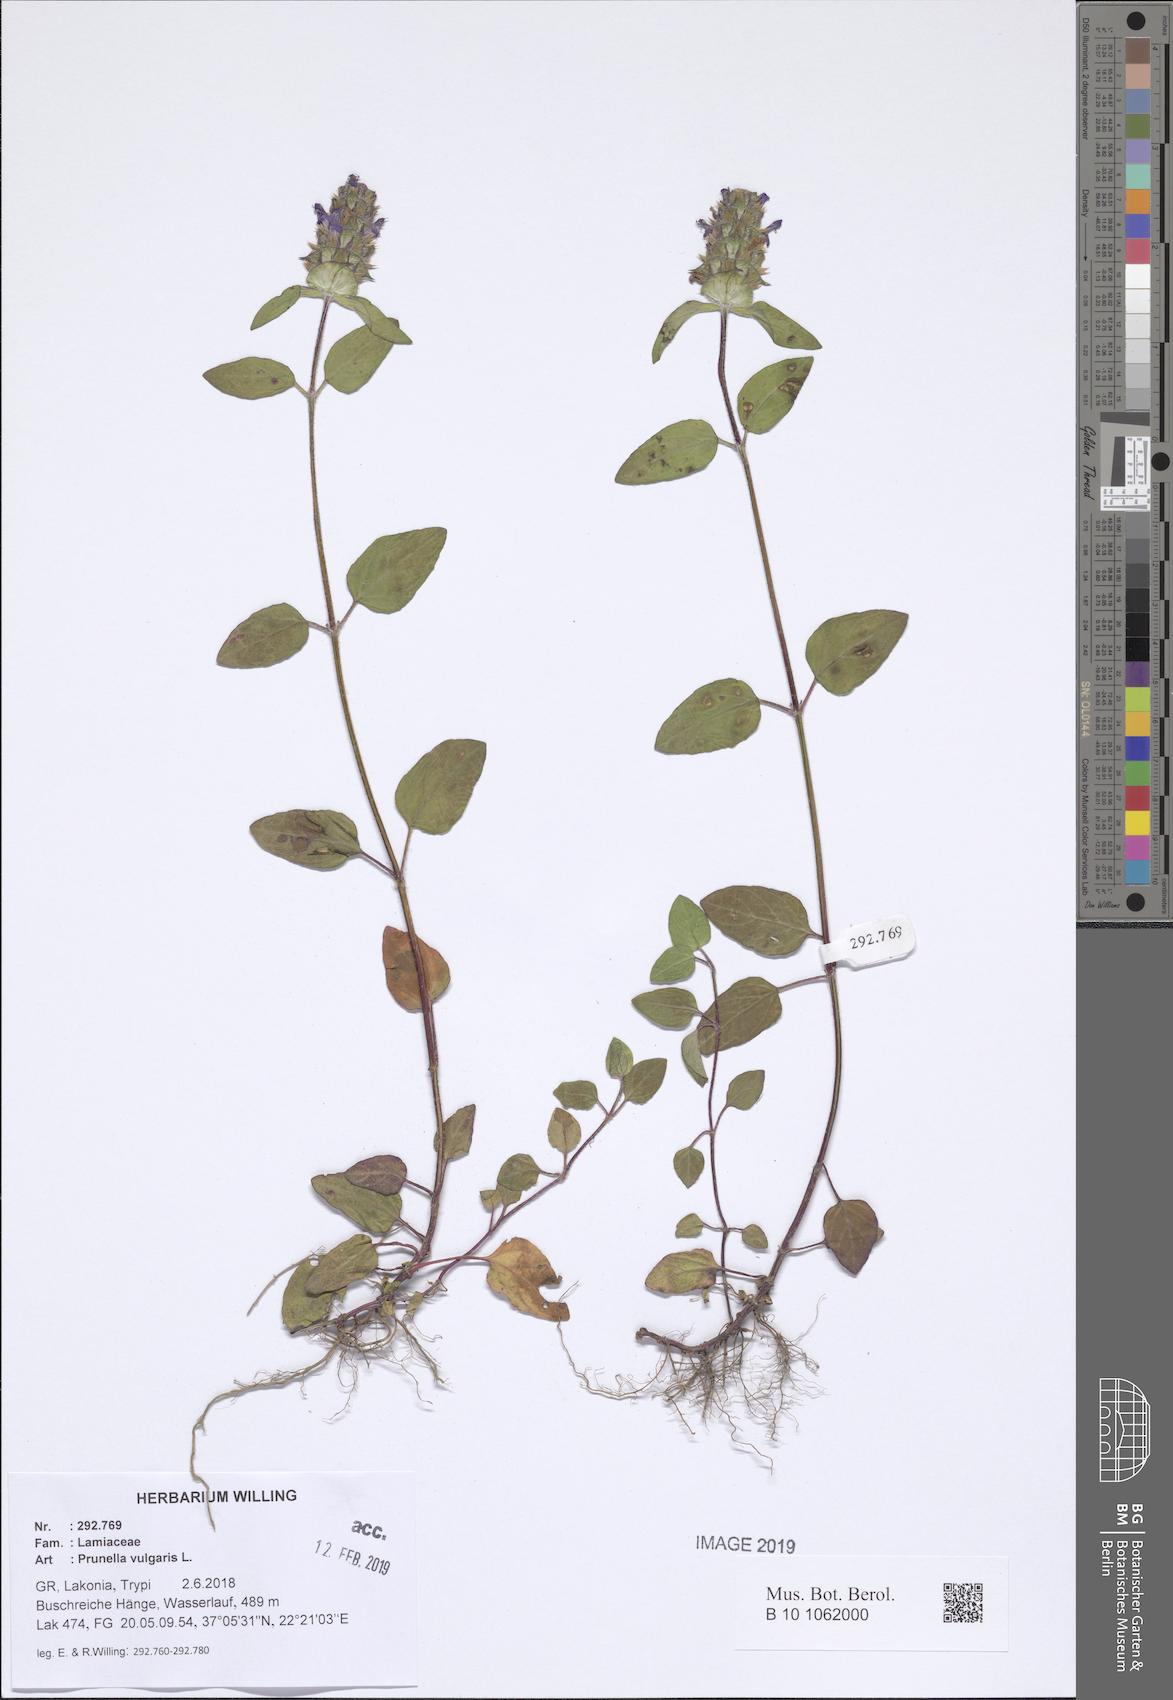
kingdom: Plantae
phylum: Tracheophyta
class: Magnoliopsida
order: Lamiales
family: Lamiaceae
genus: Prunella
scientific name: Prunella vulgaris
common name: Heal-all
